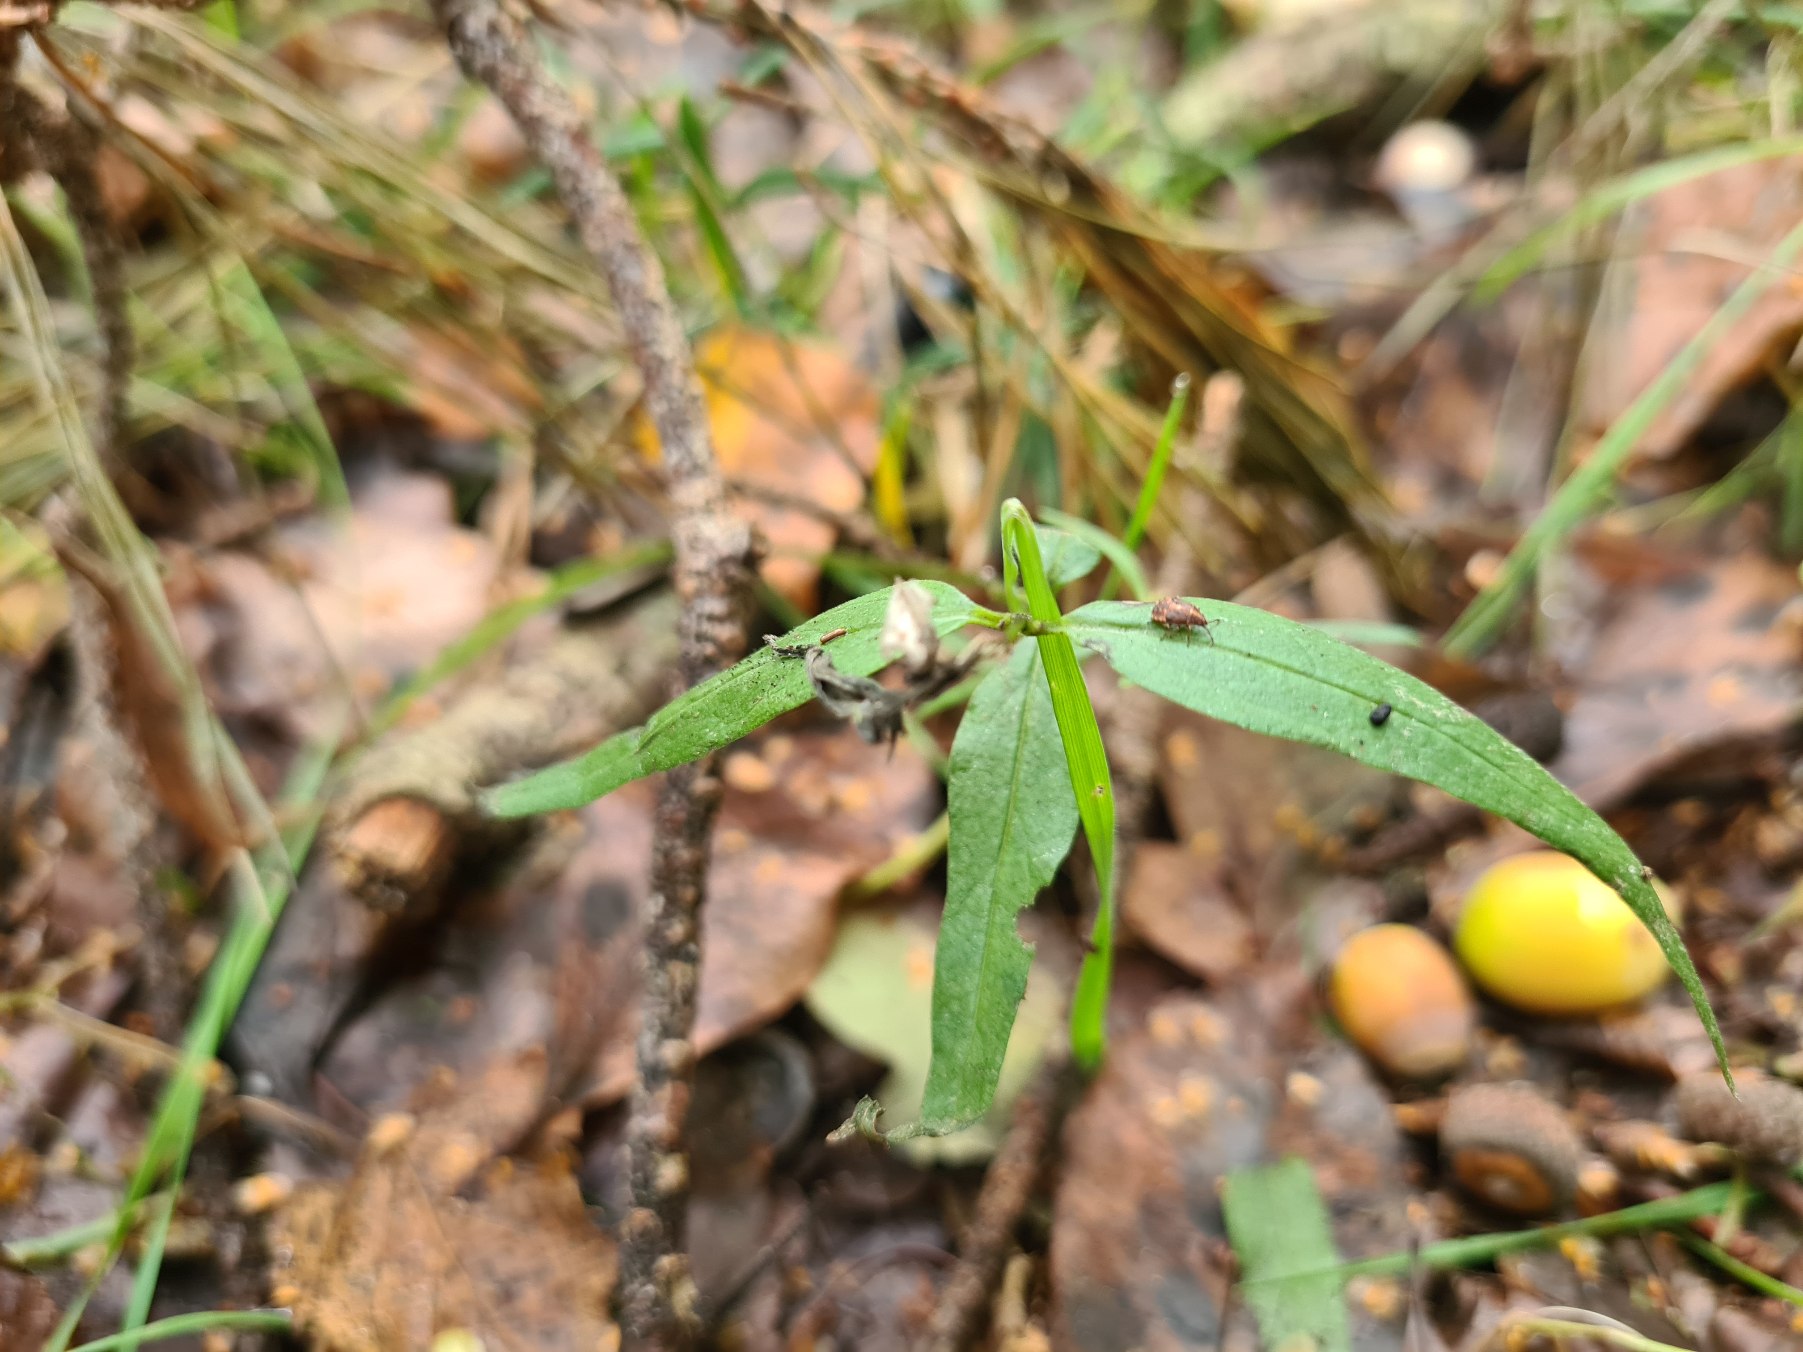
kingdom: Plantae
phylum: Tracheophyta
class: Magnoliopsida
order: Lamiales
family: Orobanchaceae
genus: Melampyrum
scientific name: Melampyrum pratense
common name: Almindelig kohvede
